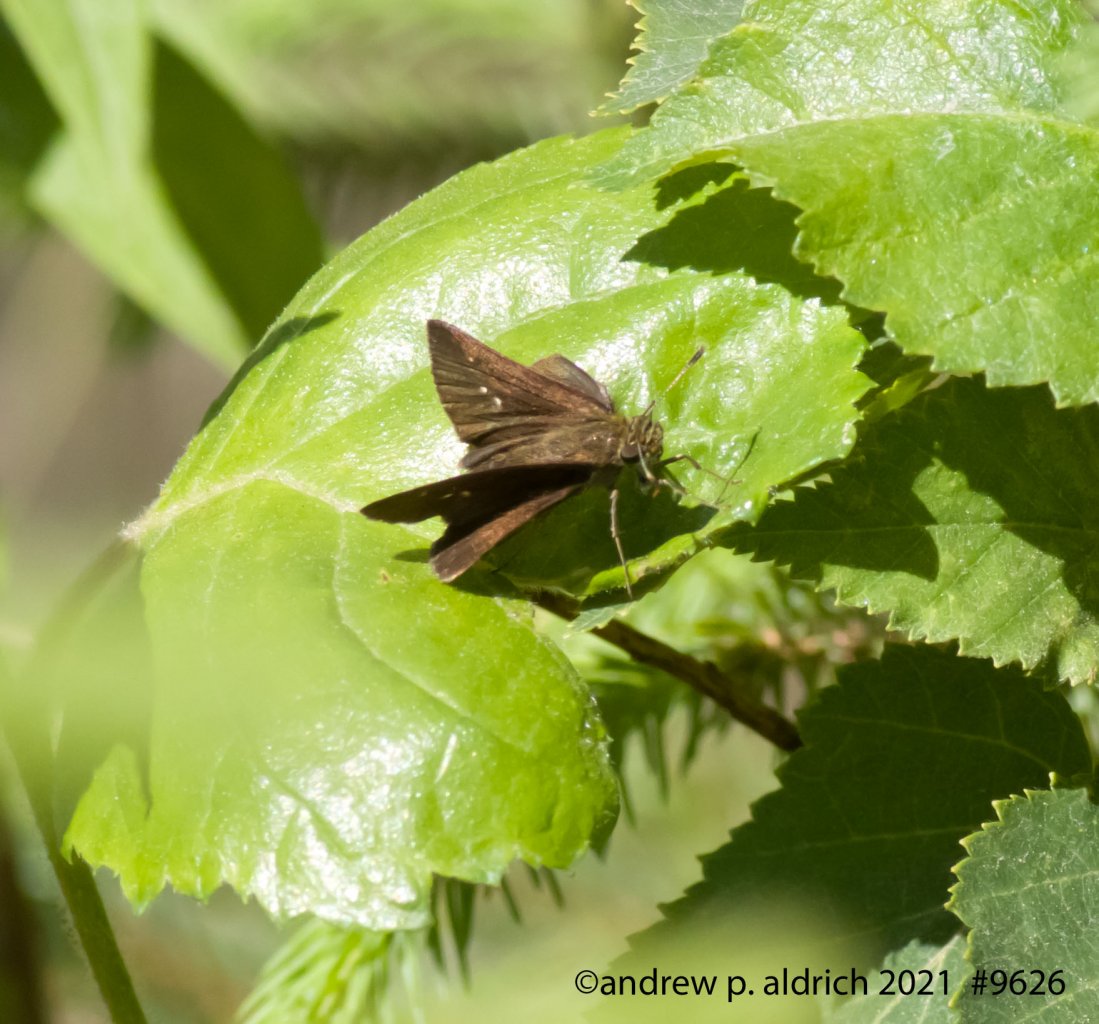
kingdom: Animalia
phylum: Arthropoda
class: Insecta
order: Lepidoptera
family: Hesperiidae
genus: Euphyes
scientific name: Euphyes vestris
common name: Dun Skipper
